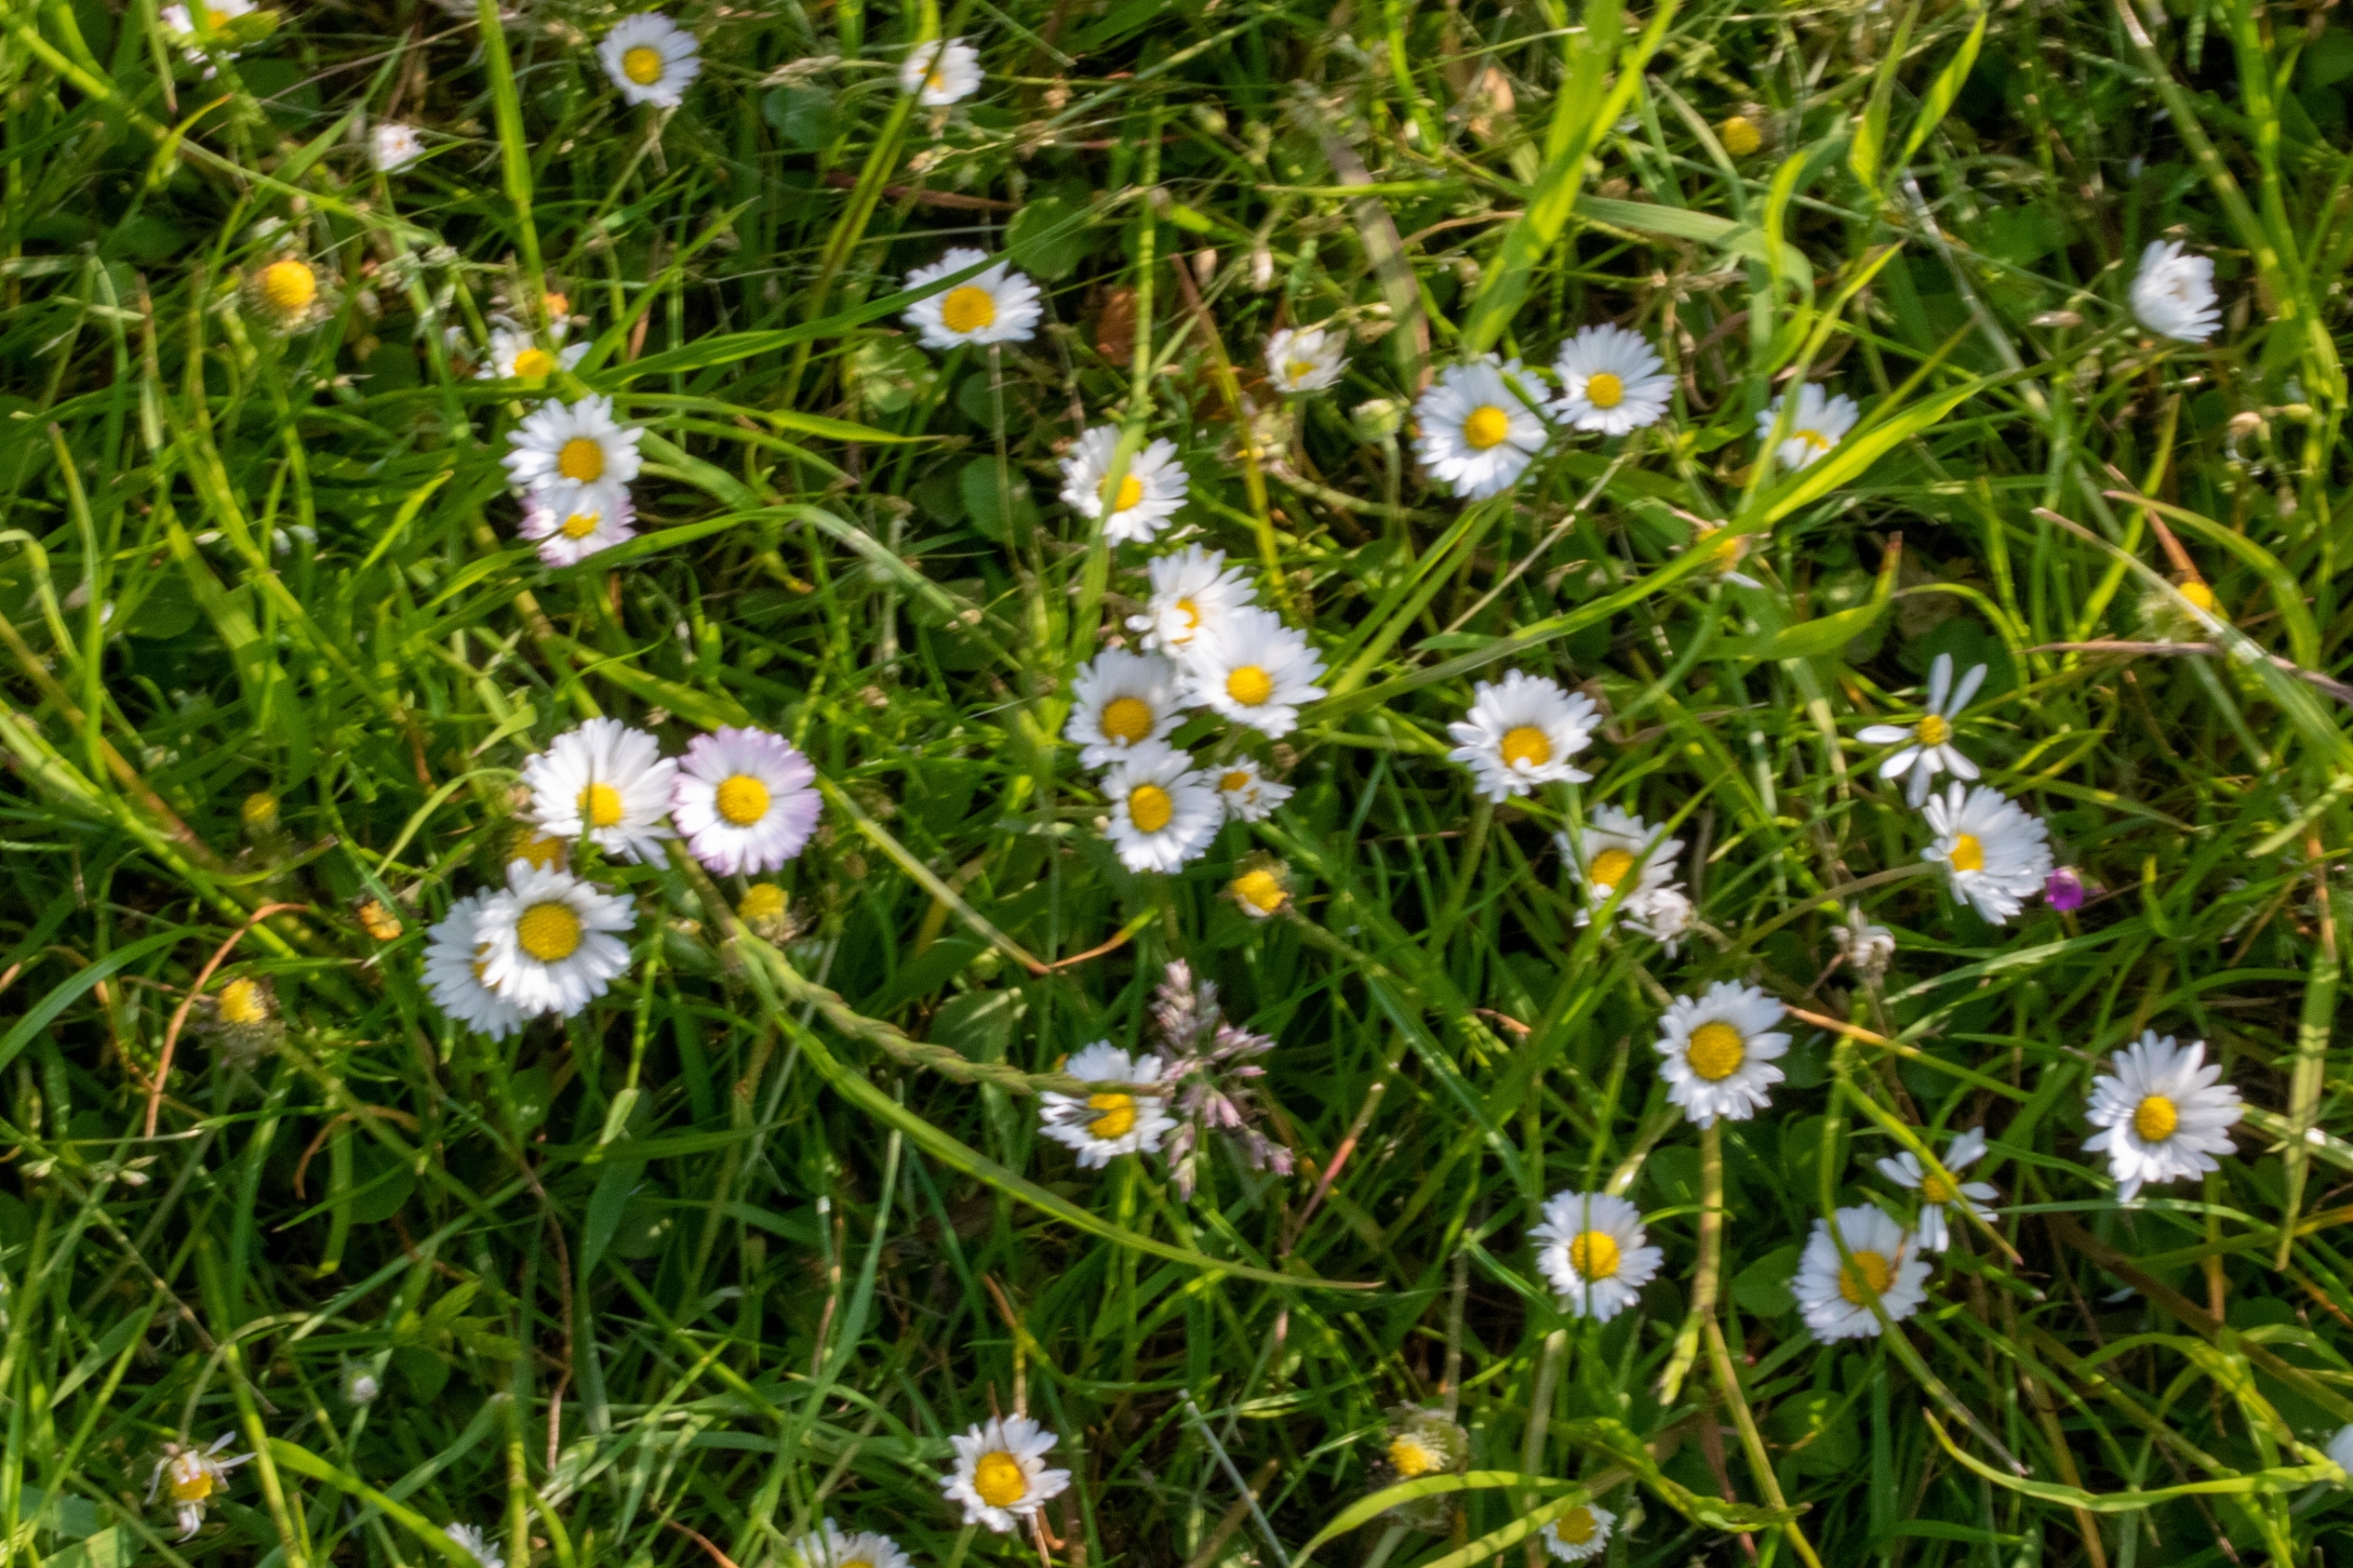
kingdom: Plantae
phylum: Tracheophyta
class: Magnoliopsida
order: Asterales
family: Asteraceae
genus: Bellis
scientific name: Bellis perennis
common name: Tusindfryd
